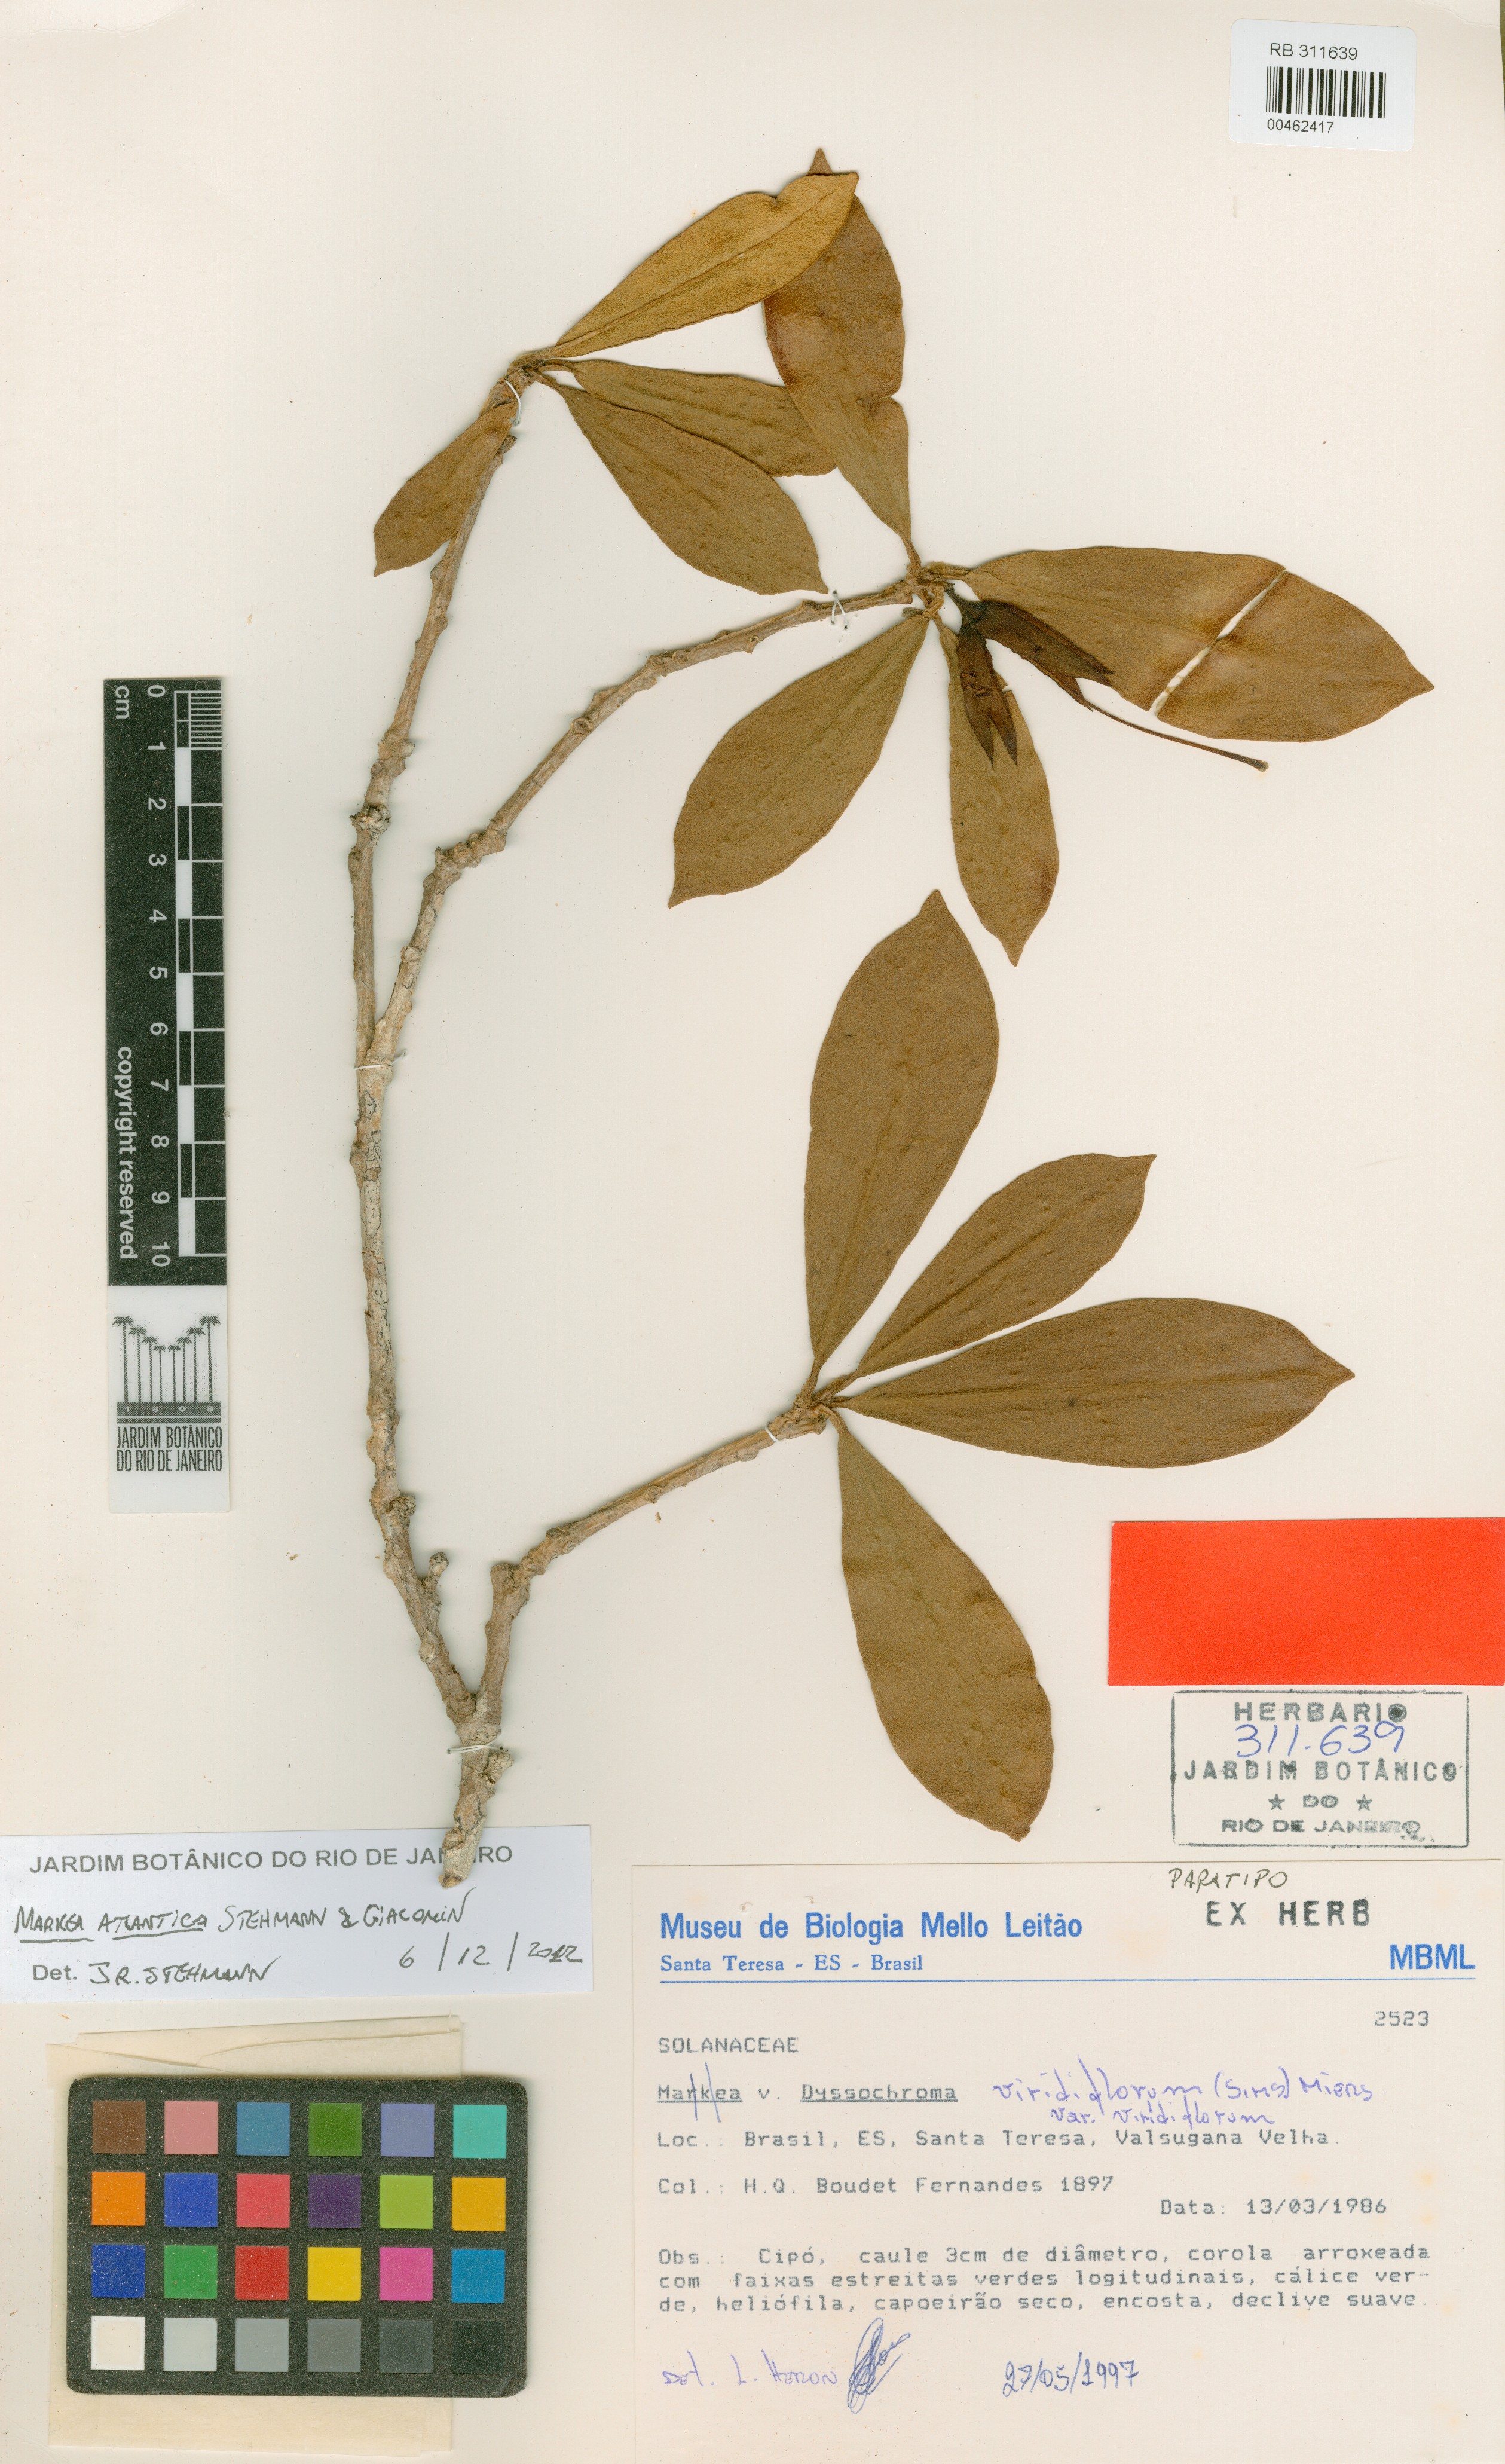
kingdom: Plantae
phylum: Tracheophyta
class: Magnoliopsida
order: Solanales
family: Solanaceae
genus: Dyssochroma
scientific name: Dyssochroma atlantica
